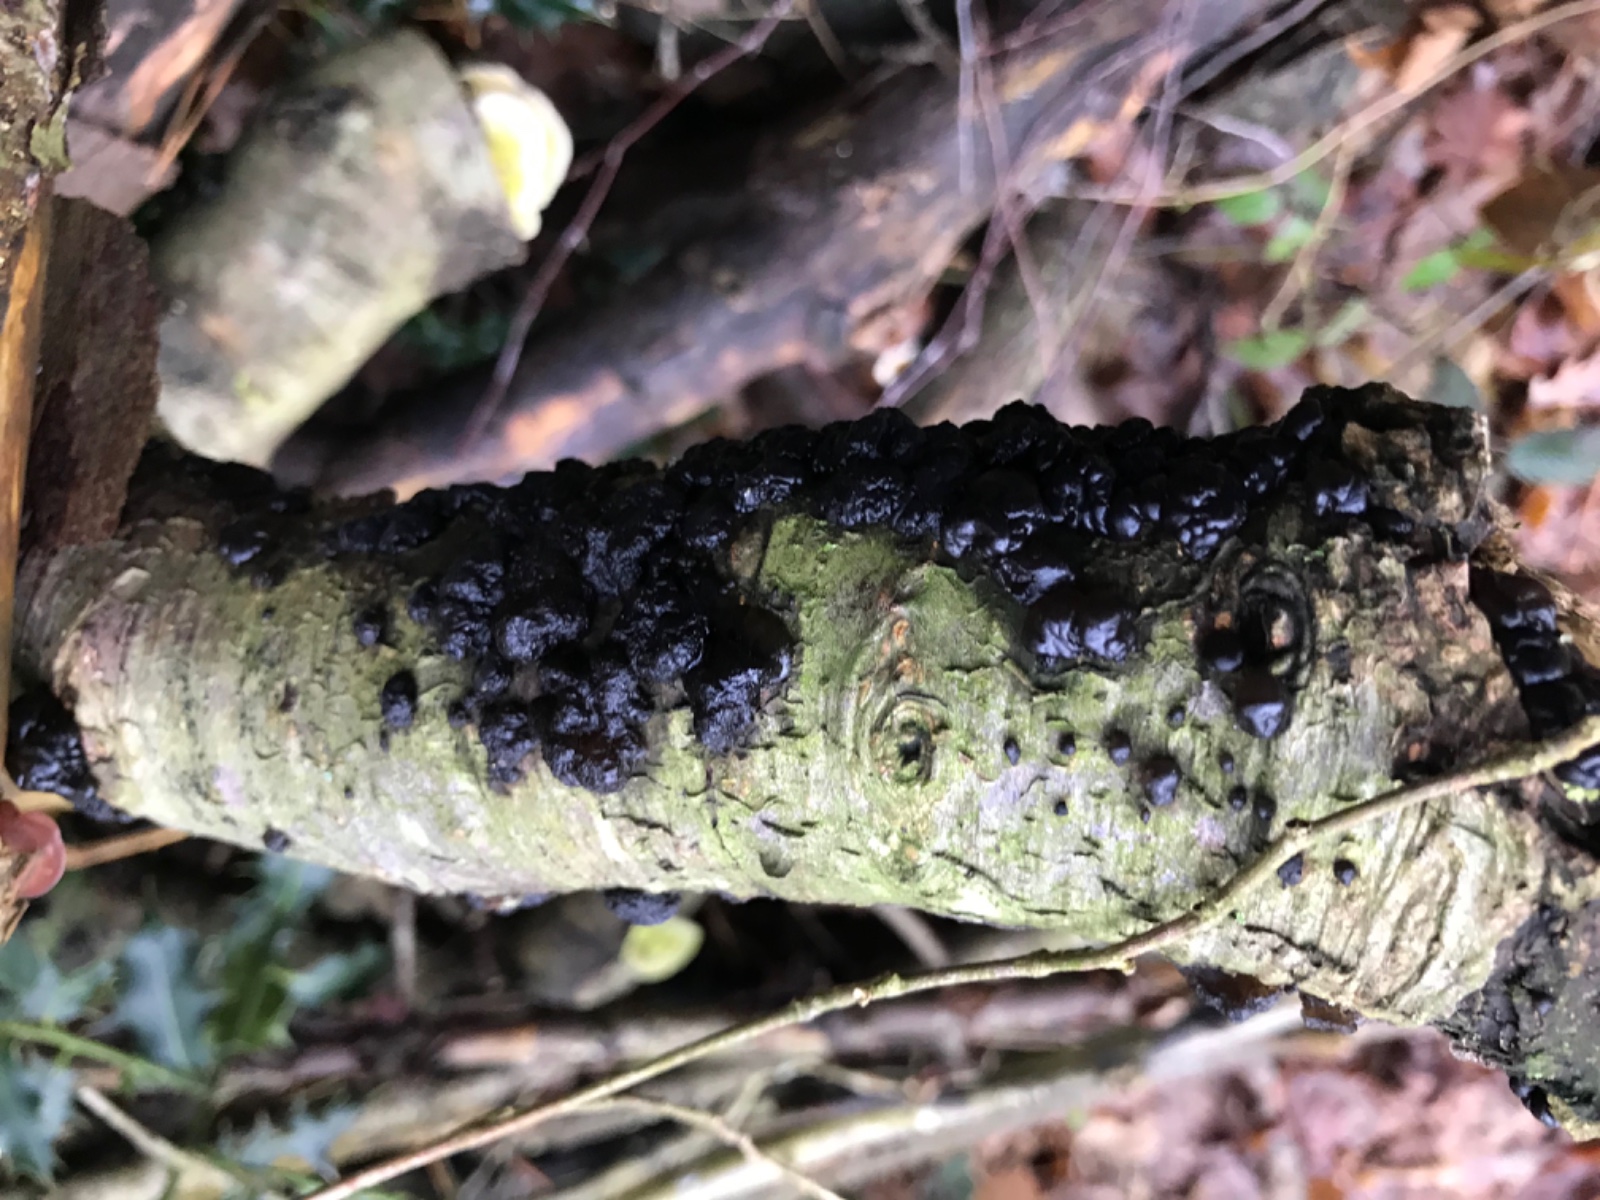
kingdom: Fungi
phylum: Basidiomycota
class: Agaricomycetes
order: Auriculariales
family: Auriculariaceae
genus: Exidia
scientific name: Exidia nigricans
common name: almindelig bævretop
